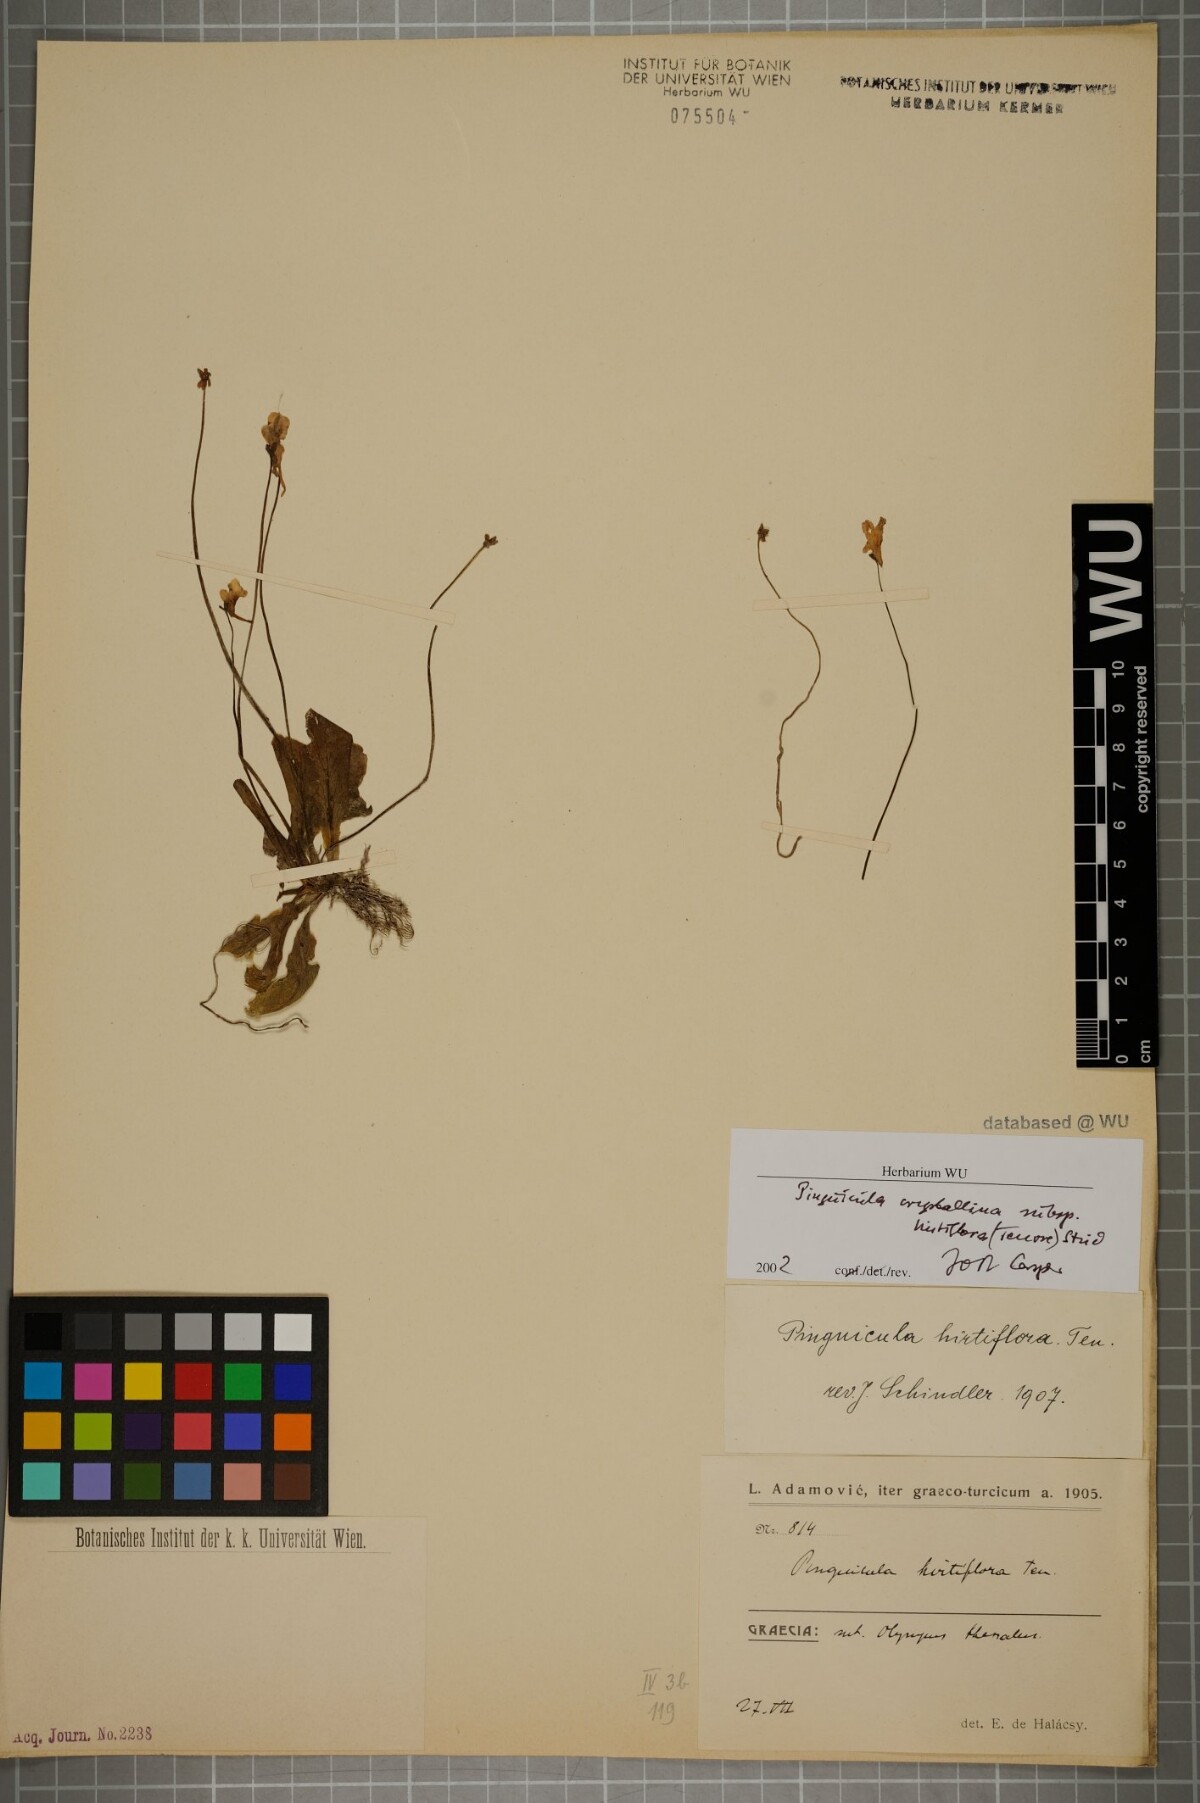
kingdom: Plantae
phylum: Tracheophyta
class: Magnoliopsida
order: Lamiales
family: Lentibulariaceae
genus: Pinguicula
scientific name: Pinguicula crystallina
